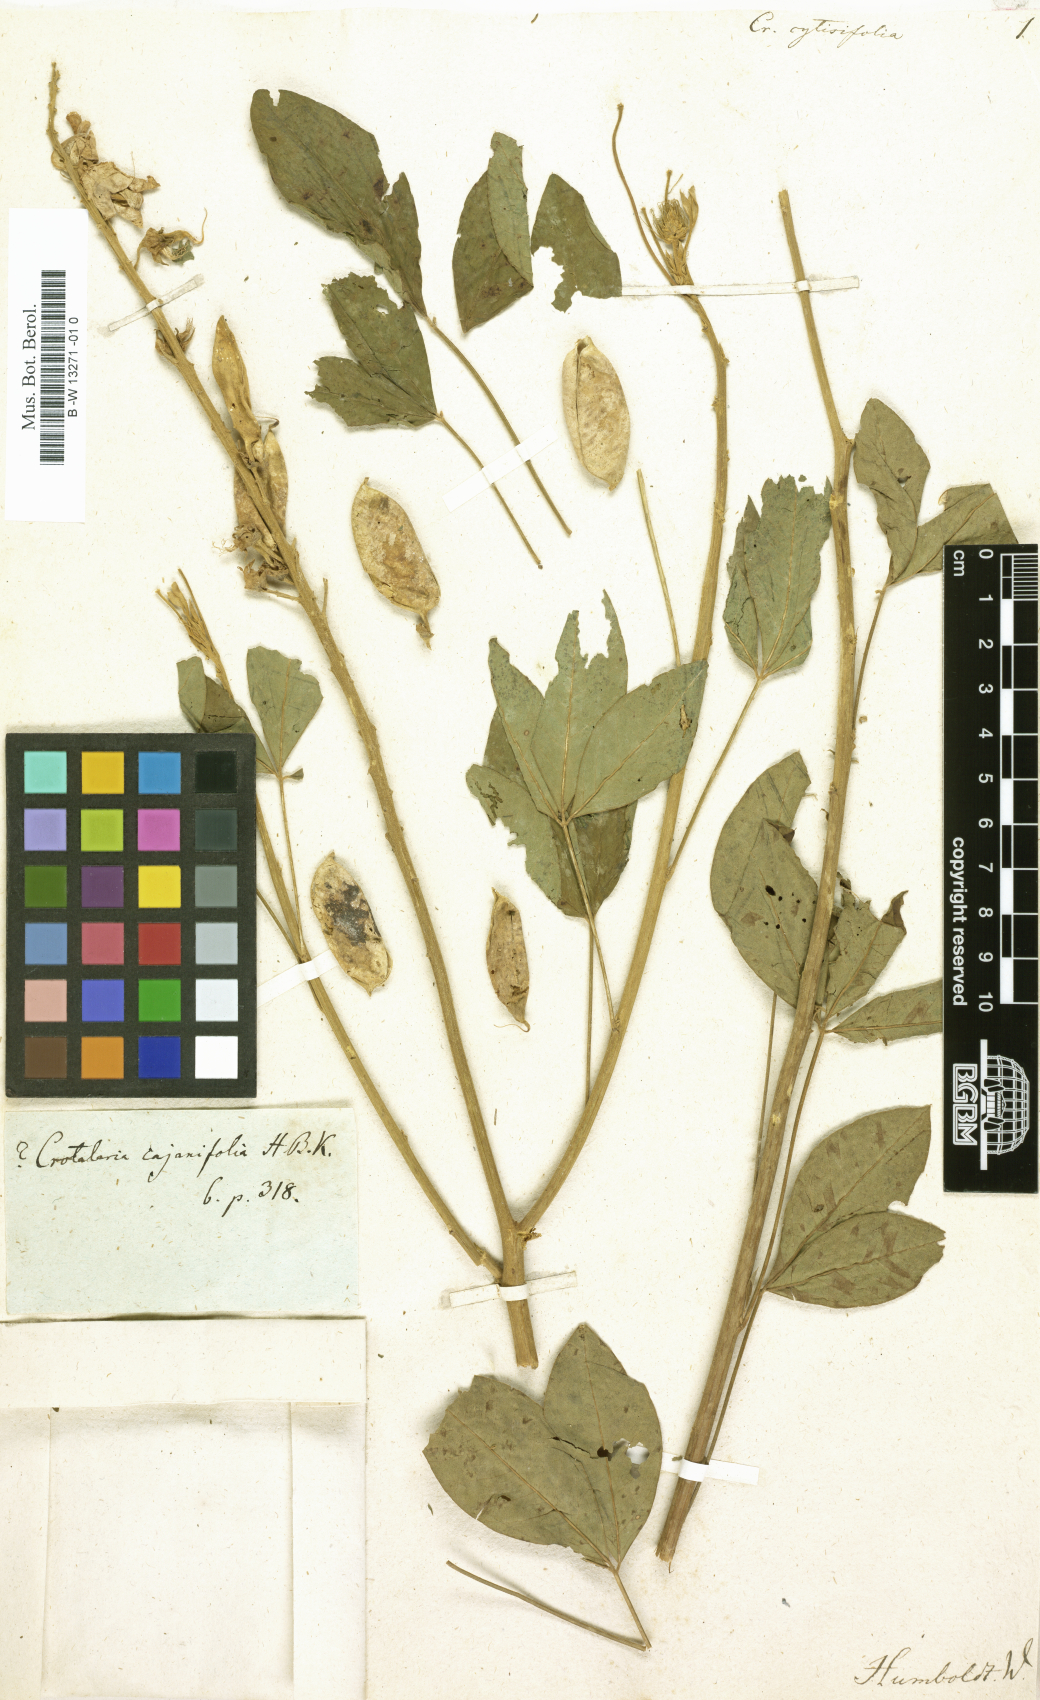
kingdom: Plantae
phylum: Tracheophyta
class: Magnoliopsida
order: Fabales
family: Fabaceae
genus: Crotalaria
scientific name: Crotalaria
